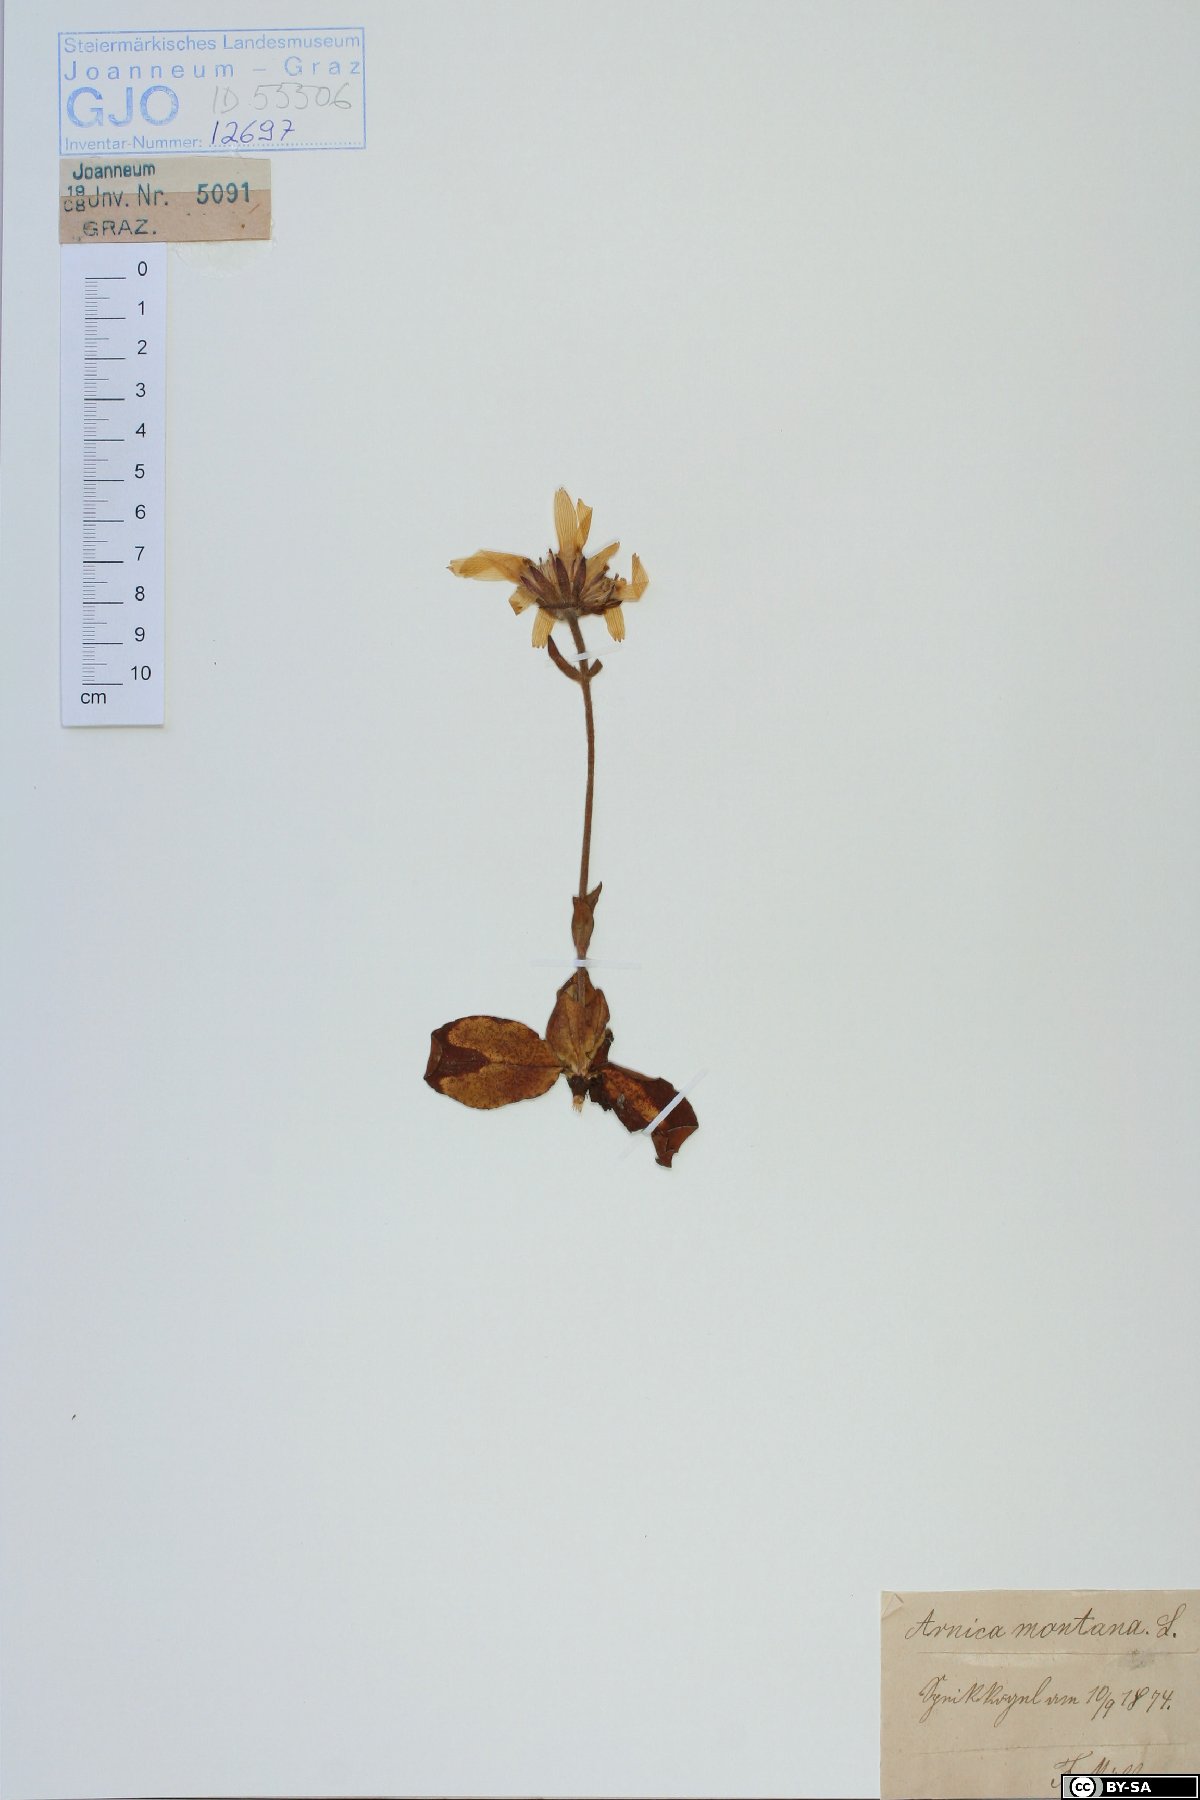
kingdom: Plantae
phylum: Tracheophyta
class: Magnoliopsida
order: Asterales
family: Asteraceae
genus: Arnica
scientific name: Arnica montana
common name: Leopard's bane
